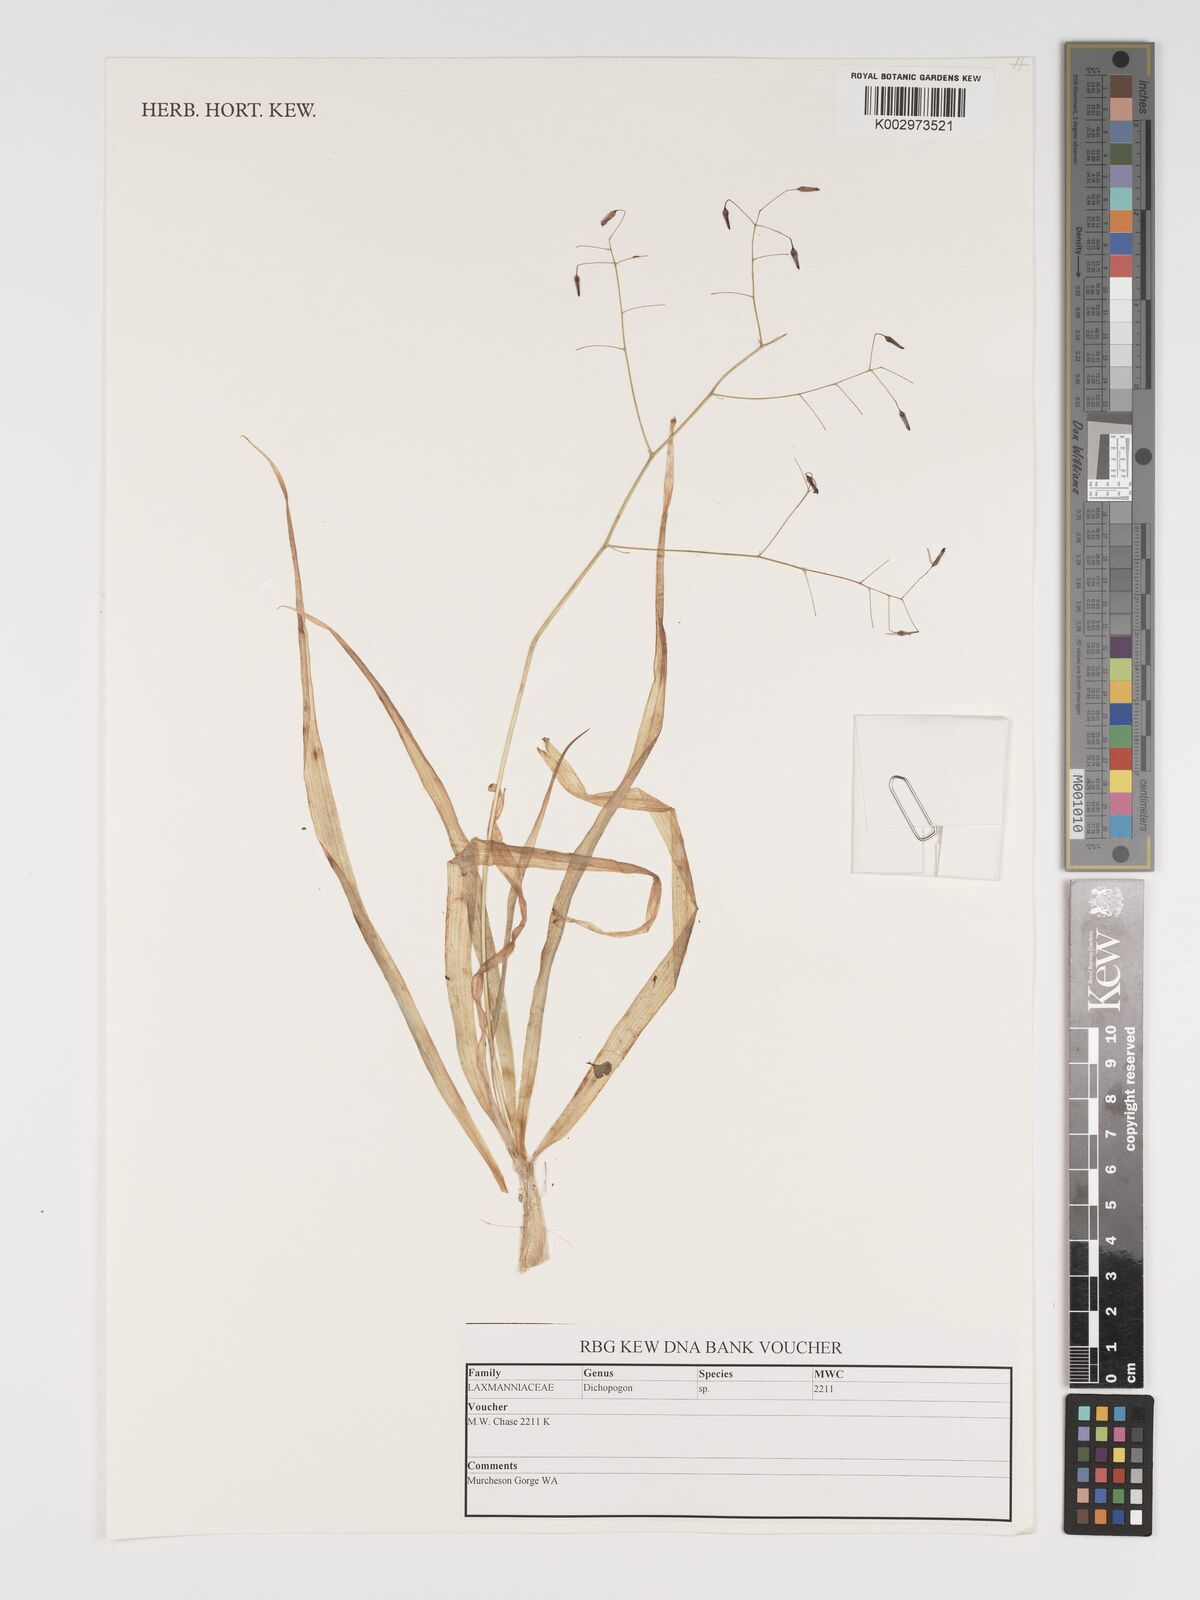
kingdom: Plantae
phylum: Tracheophyta
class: Liliopsida
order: Asparagales
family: Asparagaceae
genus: Dichopogon
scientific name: Dichopogon
